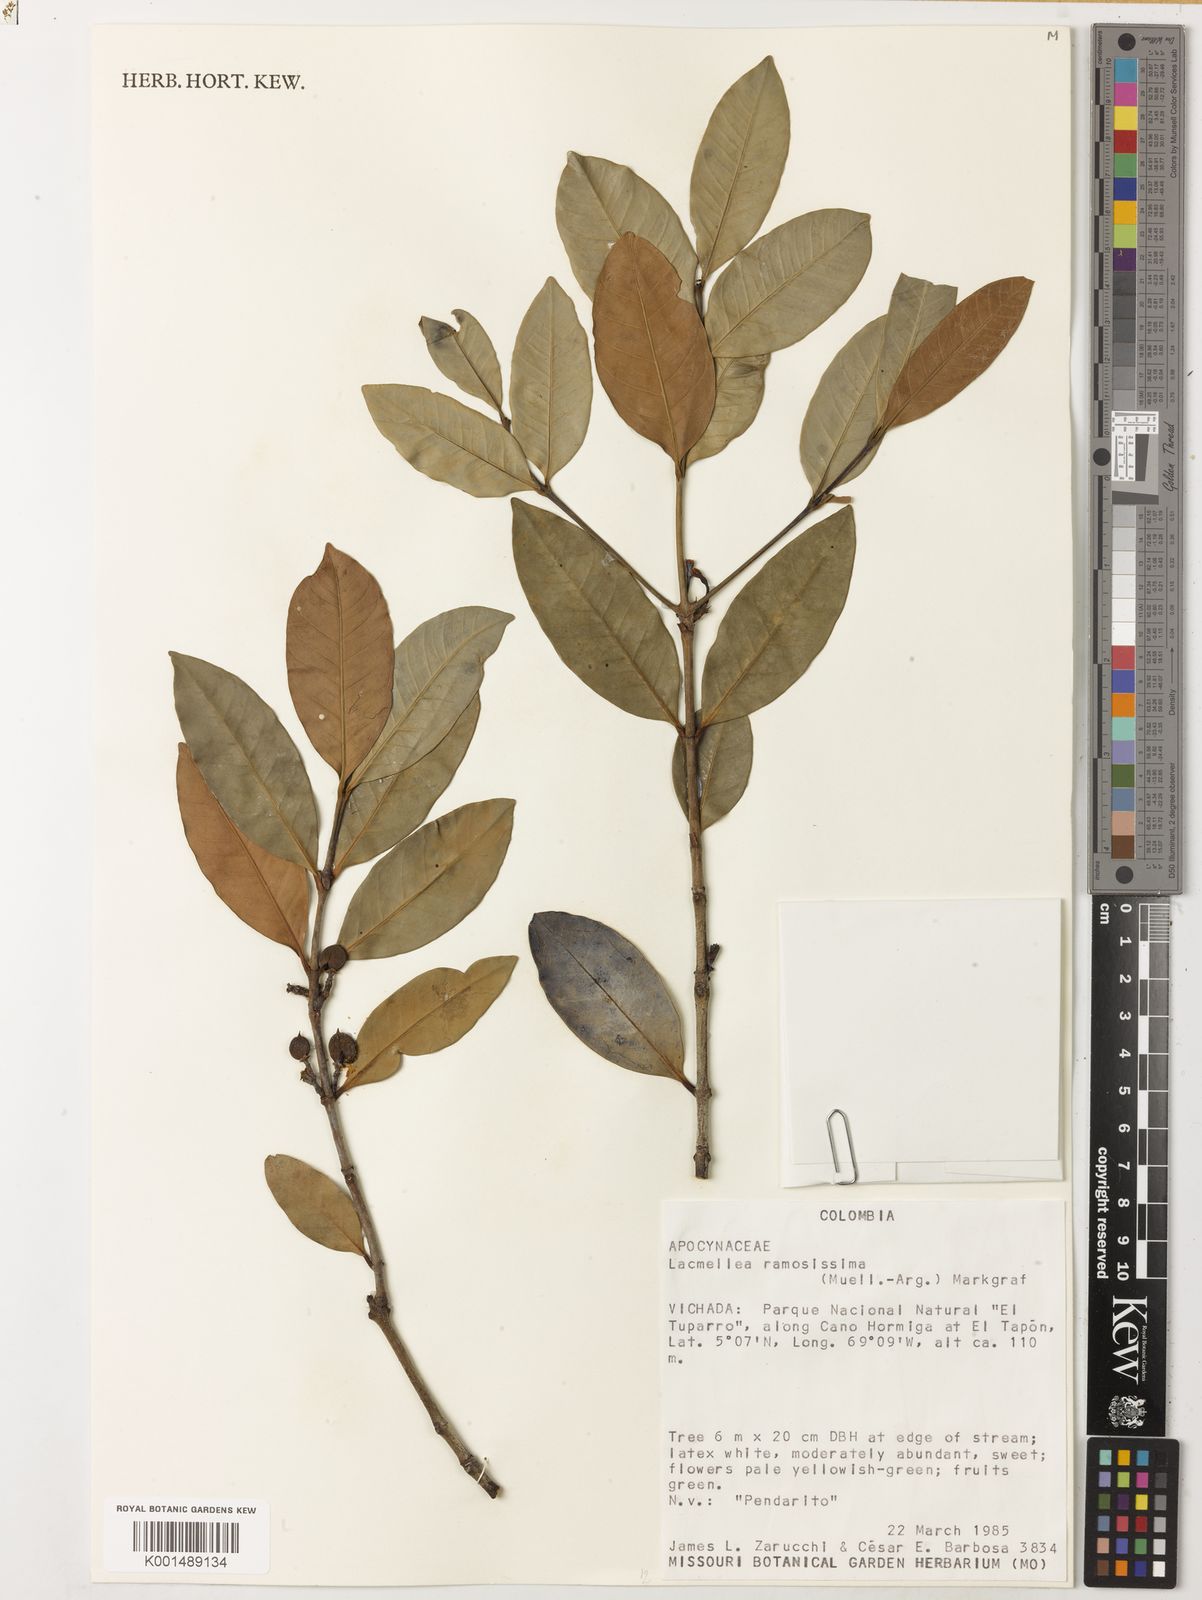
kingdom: Plantae
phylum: Tracheophyta
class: Magnoliopsida
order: Gentianales
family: Apocynaceae
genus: Lacmellea
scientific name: Lacmellea ramosissima
